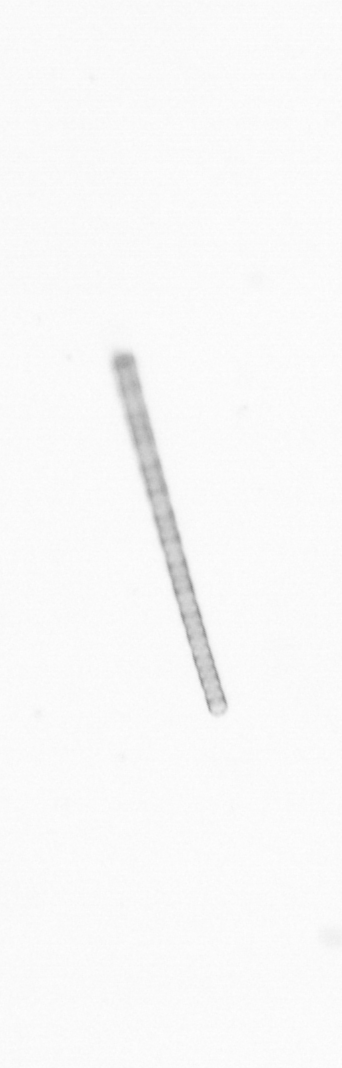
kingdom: Chromista
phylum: Ochrophyta
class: Bacillariophyceae
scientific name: Bacillariophyceae
